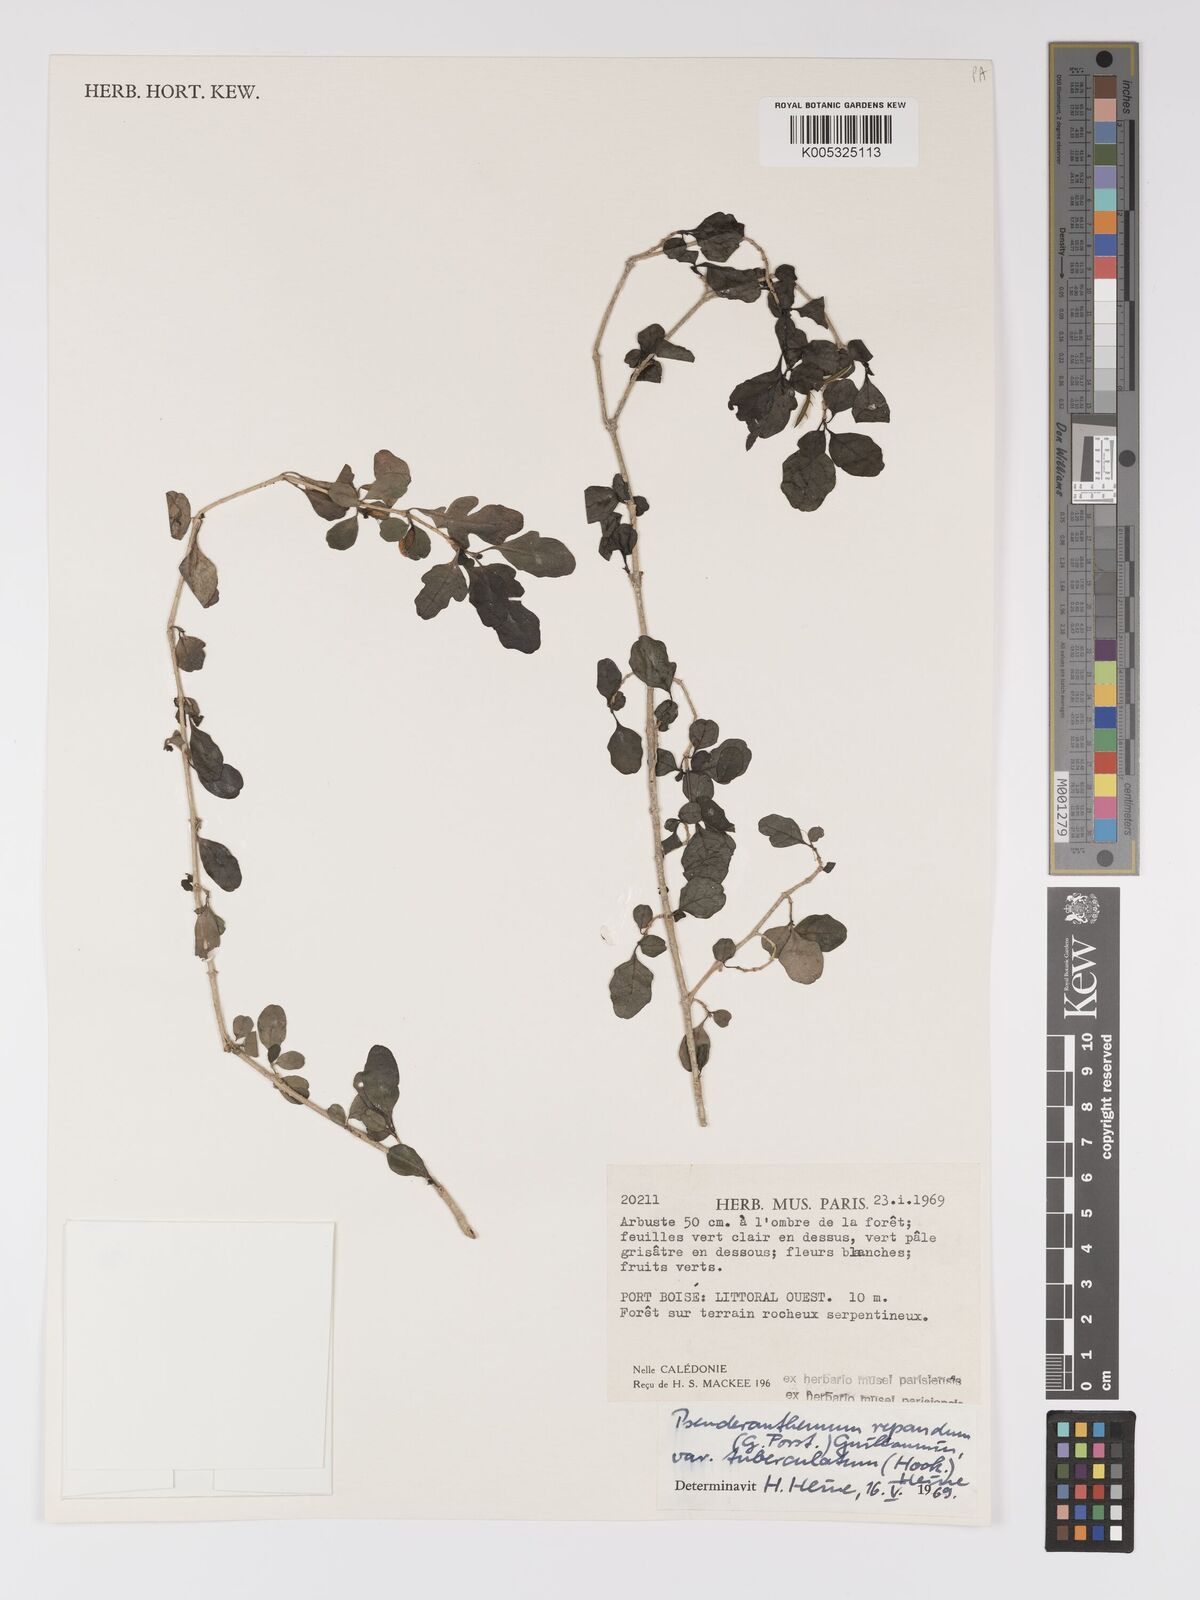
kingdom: Plantae
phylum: Tracheophyta
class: Magnoliopsida
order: Lamiales
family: Acanthaceae
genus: Pseuderanthemum
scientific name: Pseuderanthemum repandum
